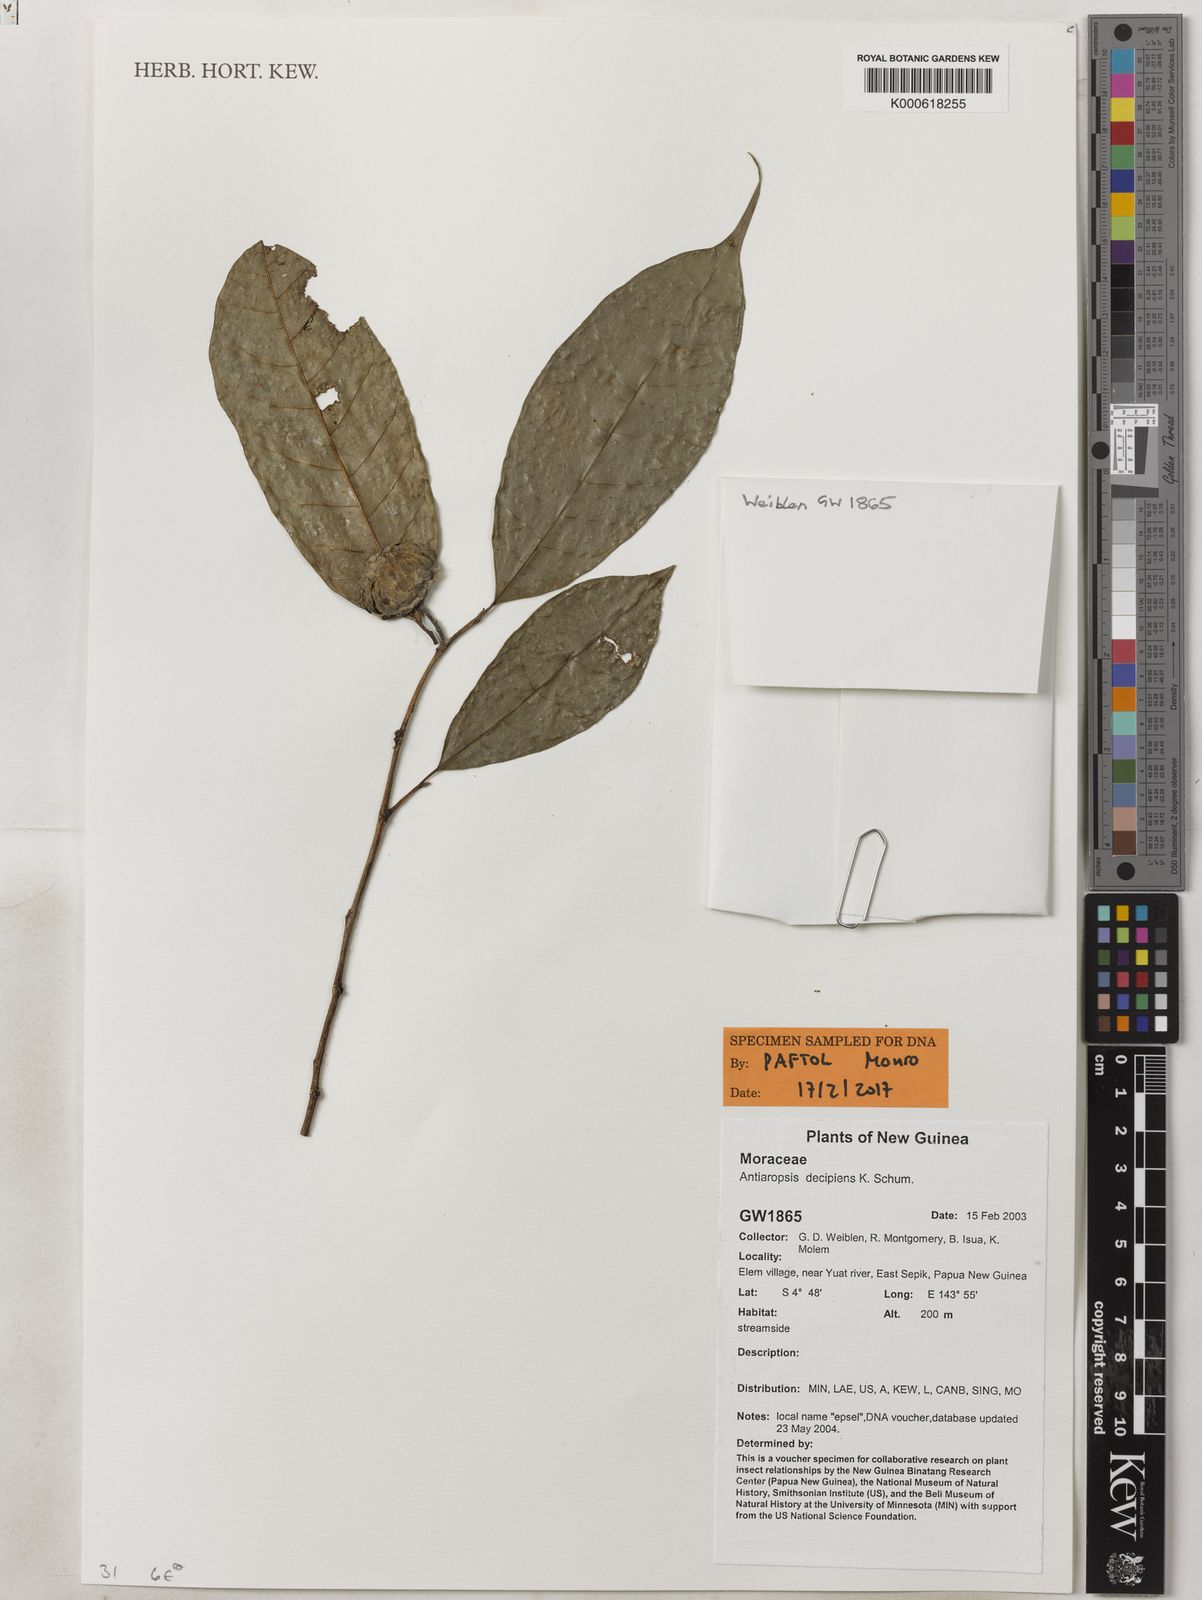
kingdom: Plantae
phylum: Tracheophyta
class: Magnoliopsida
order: Rosales
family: Moraceae
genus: Antiaropsis
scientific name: Antiaropsis decipiens
